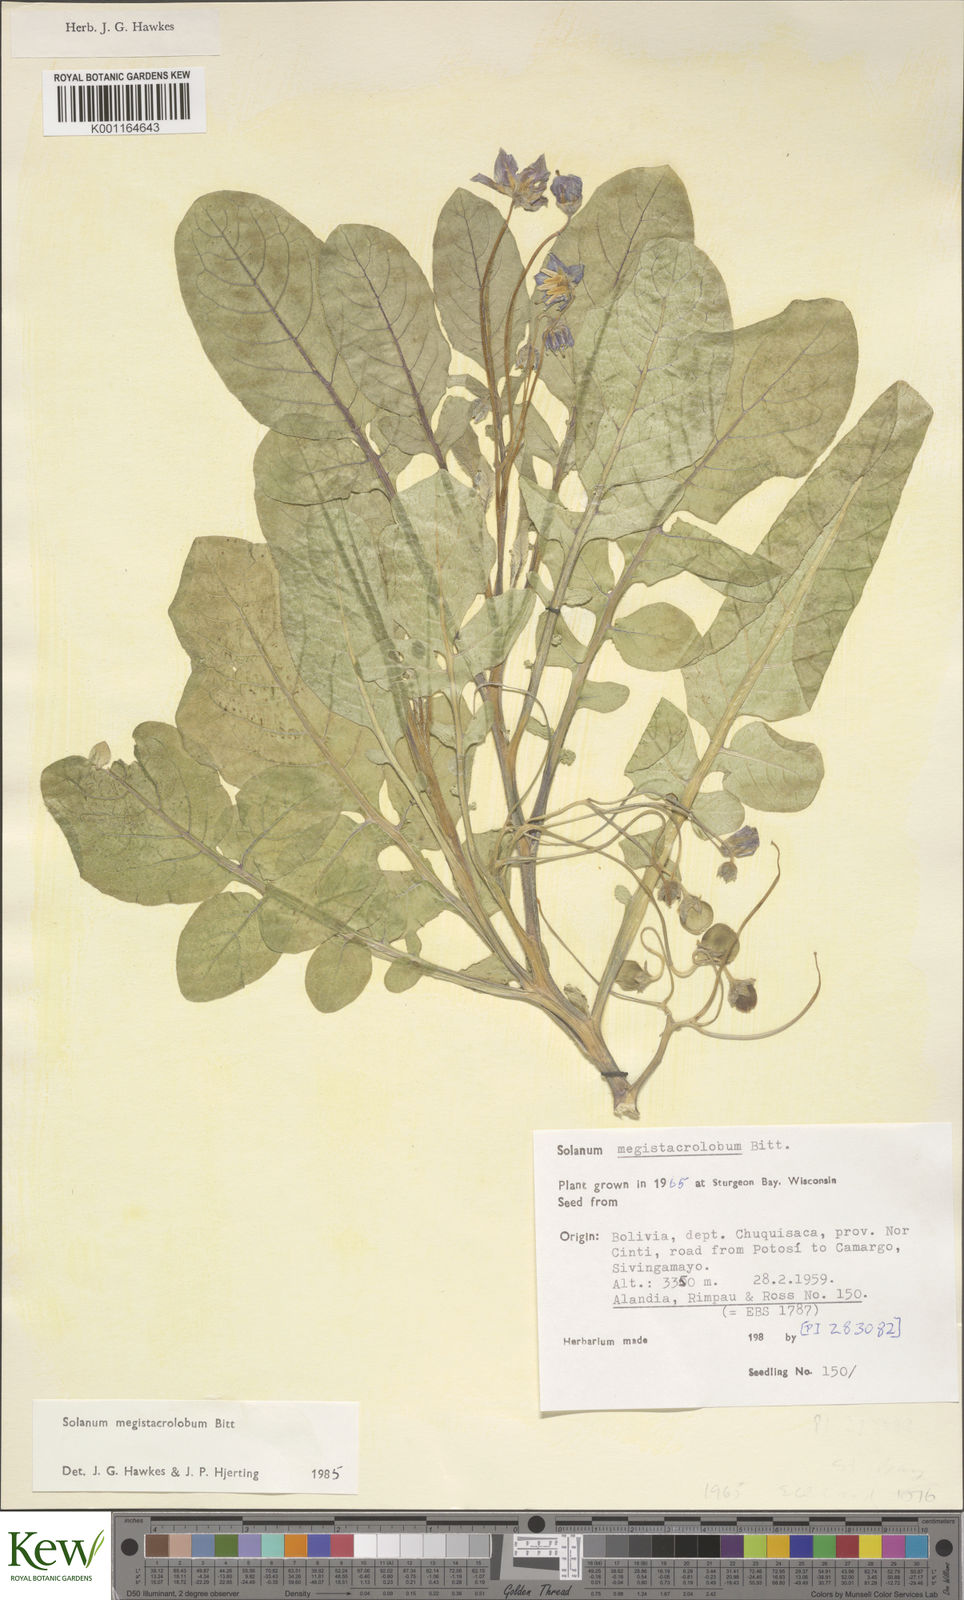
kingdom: Plantae
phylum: Tracheophyta
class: Magnoliopsida
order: Solanales
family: Solanaceae
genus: Solanum
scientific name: Solanum boliviense
